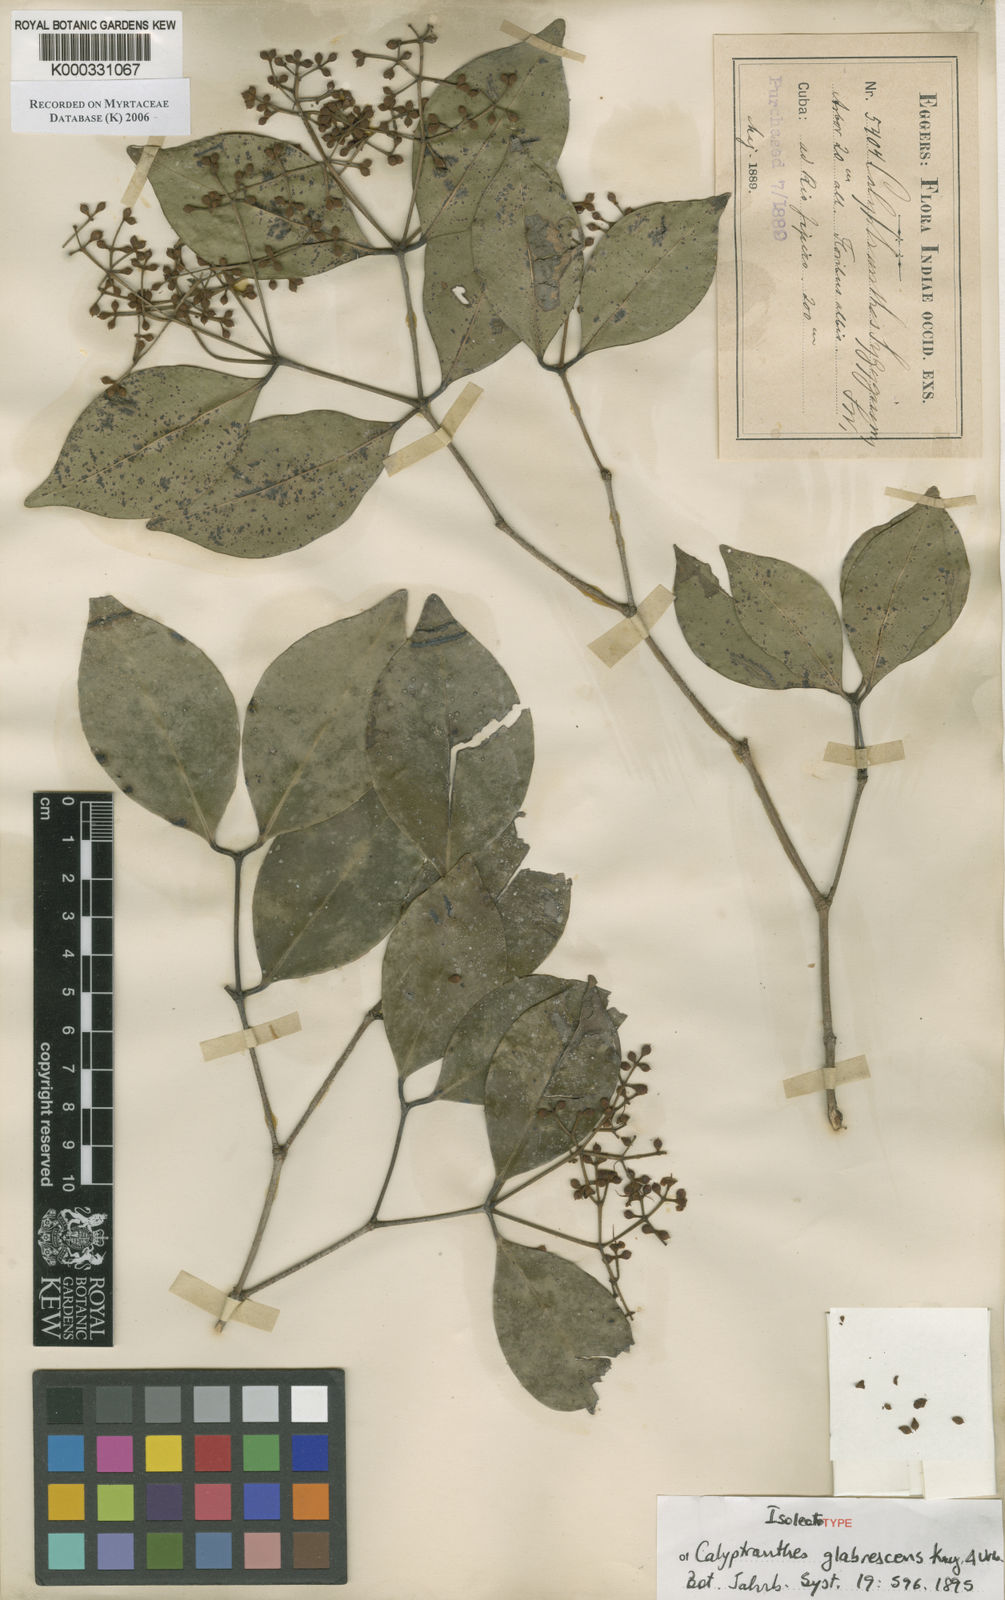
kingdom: Plantae
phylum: Tracheophyta
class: Magnoliopsida
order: Myrtales
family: Myrtaceae
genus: Myrcia
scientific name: Myrcia chytraculia
